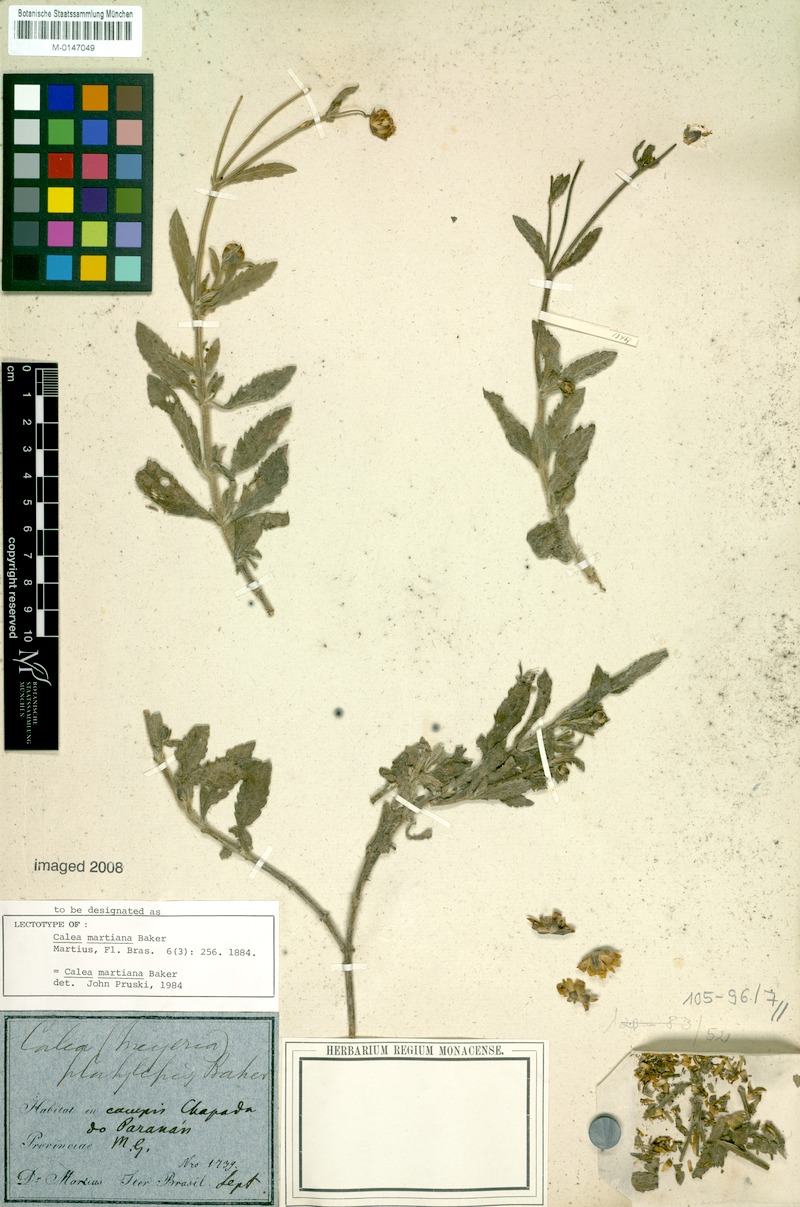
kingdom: Plantae
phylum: Tracheophyta
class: Magnoliopsida
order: Asterales
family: Asteraceae
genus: Calea
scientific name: Calea martiana
